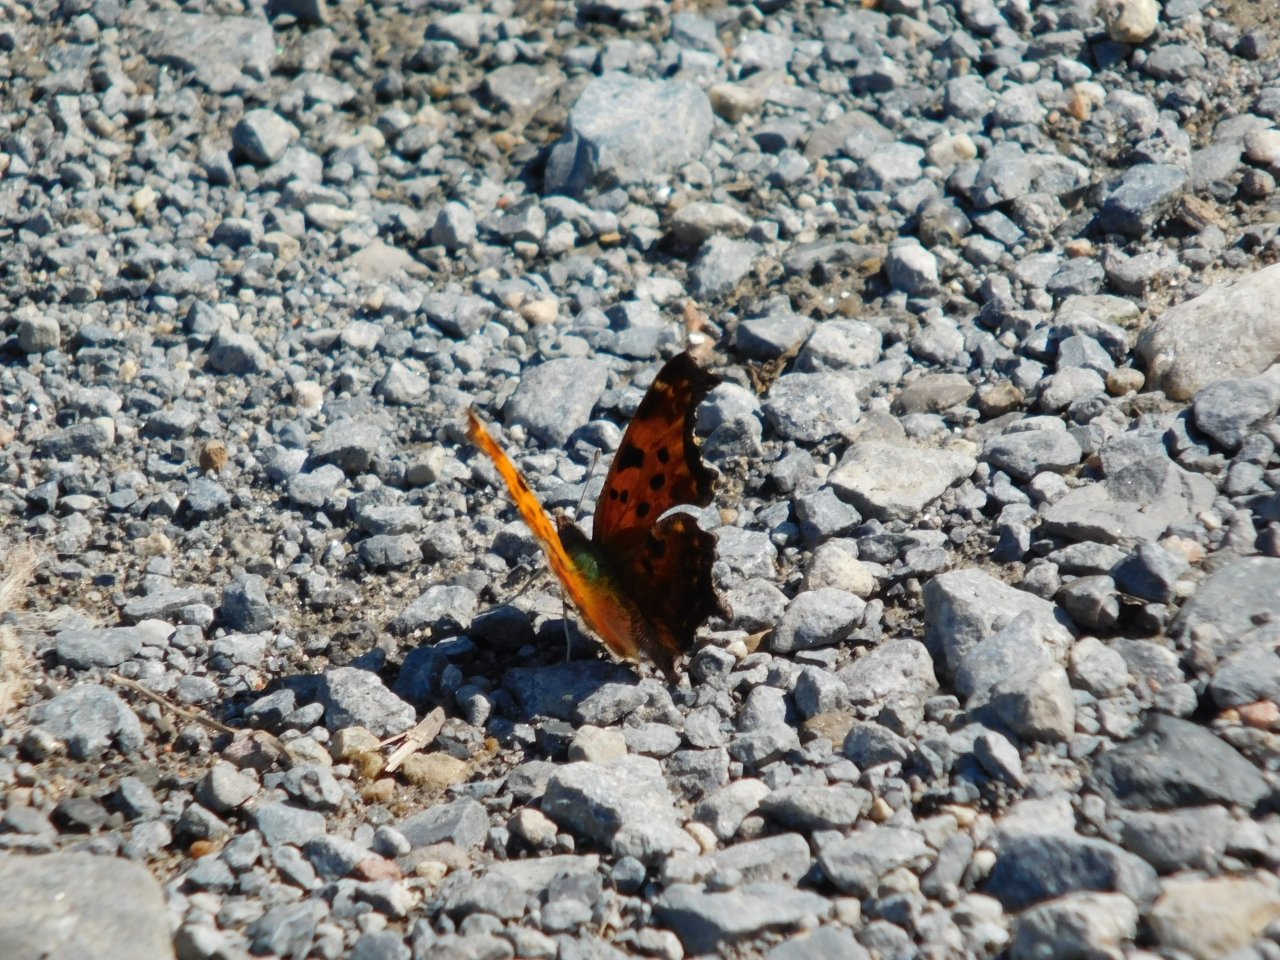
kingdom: Animalia
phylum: Arthropoda
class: Insecta
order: Lepidoptera
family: Nymphalidae
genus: Polygonia
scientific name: Polygonia comma
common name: Eastern Comma
